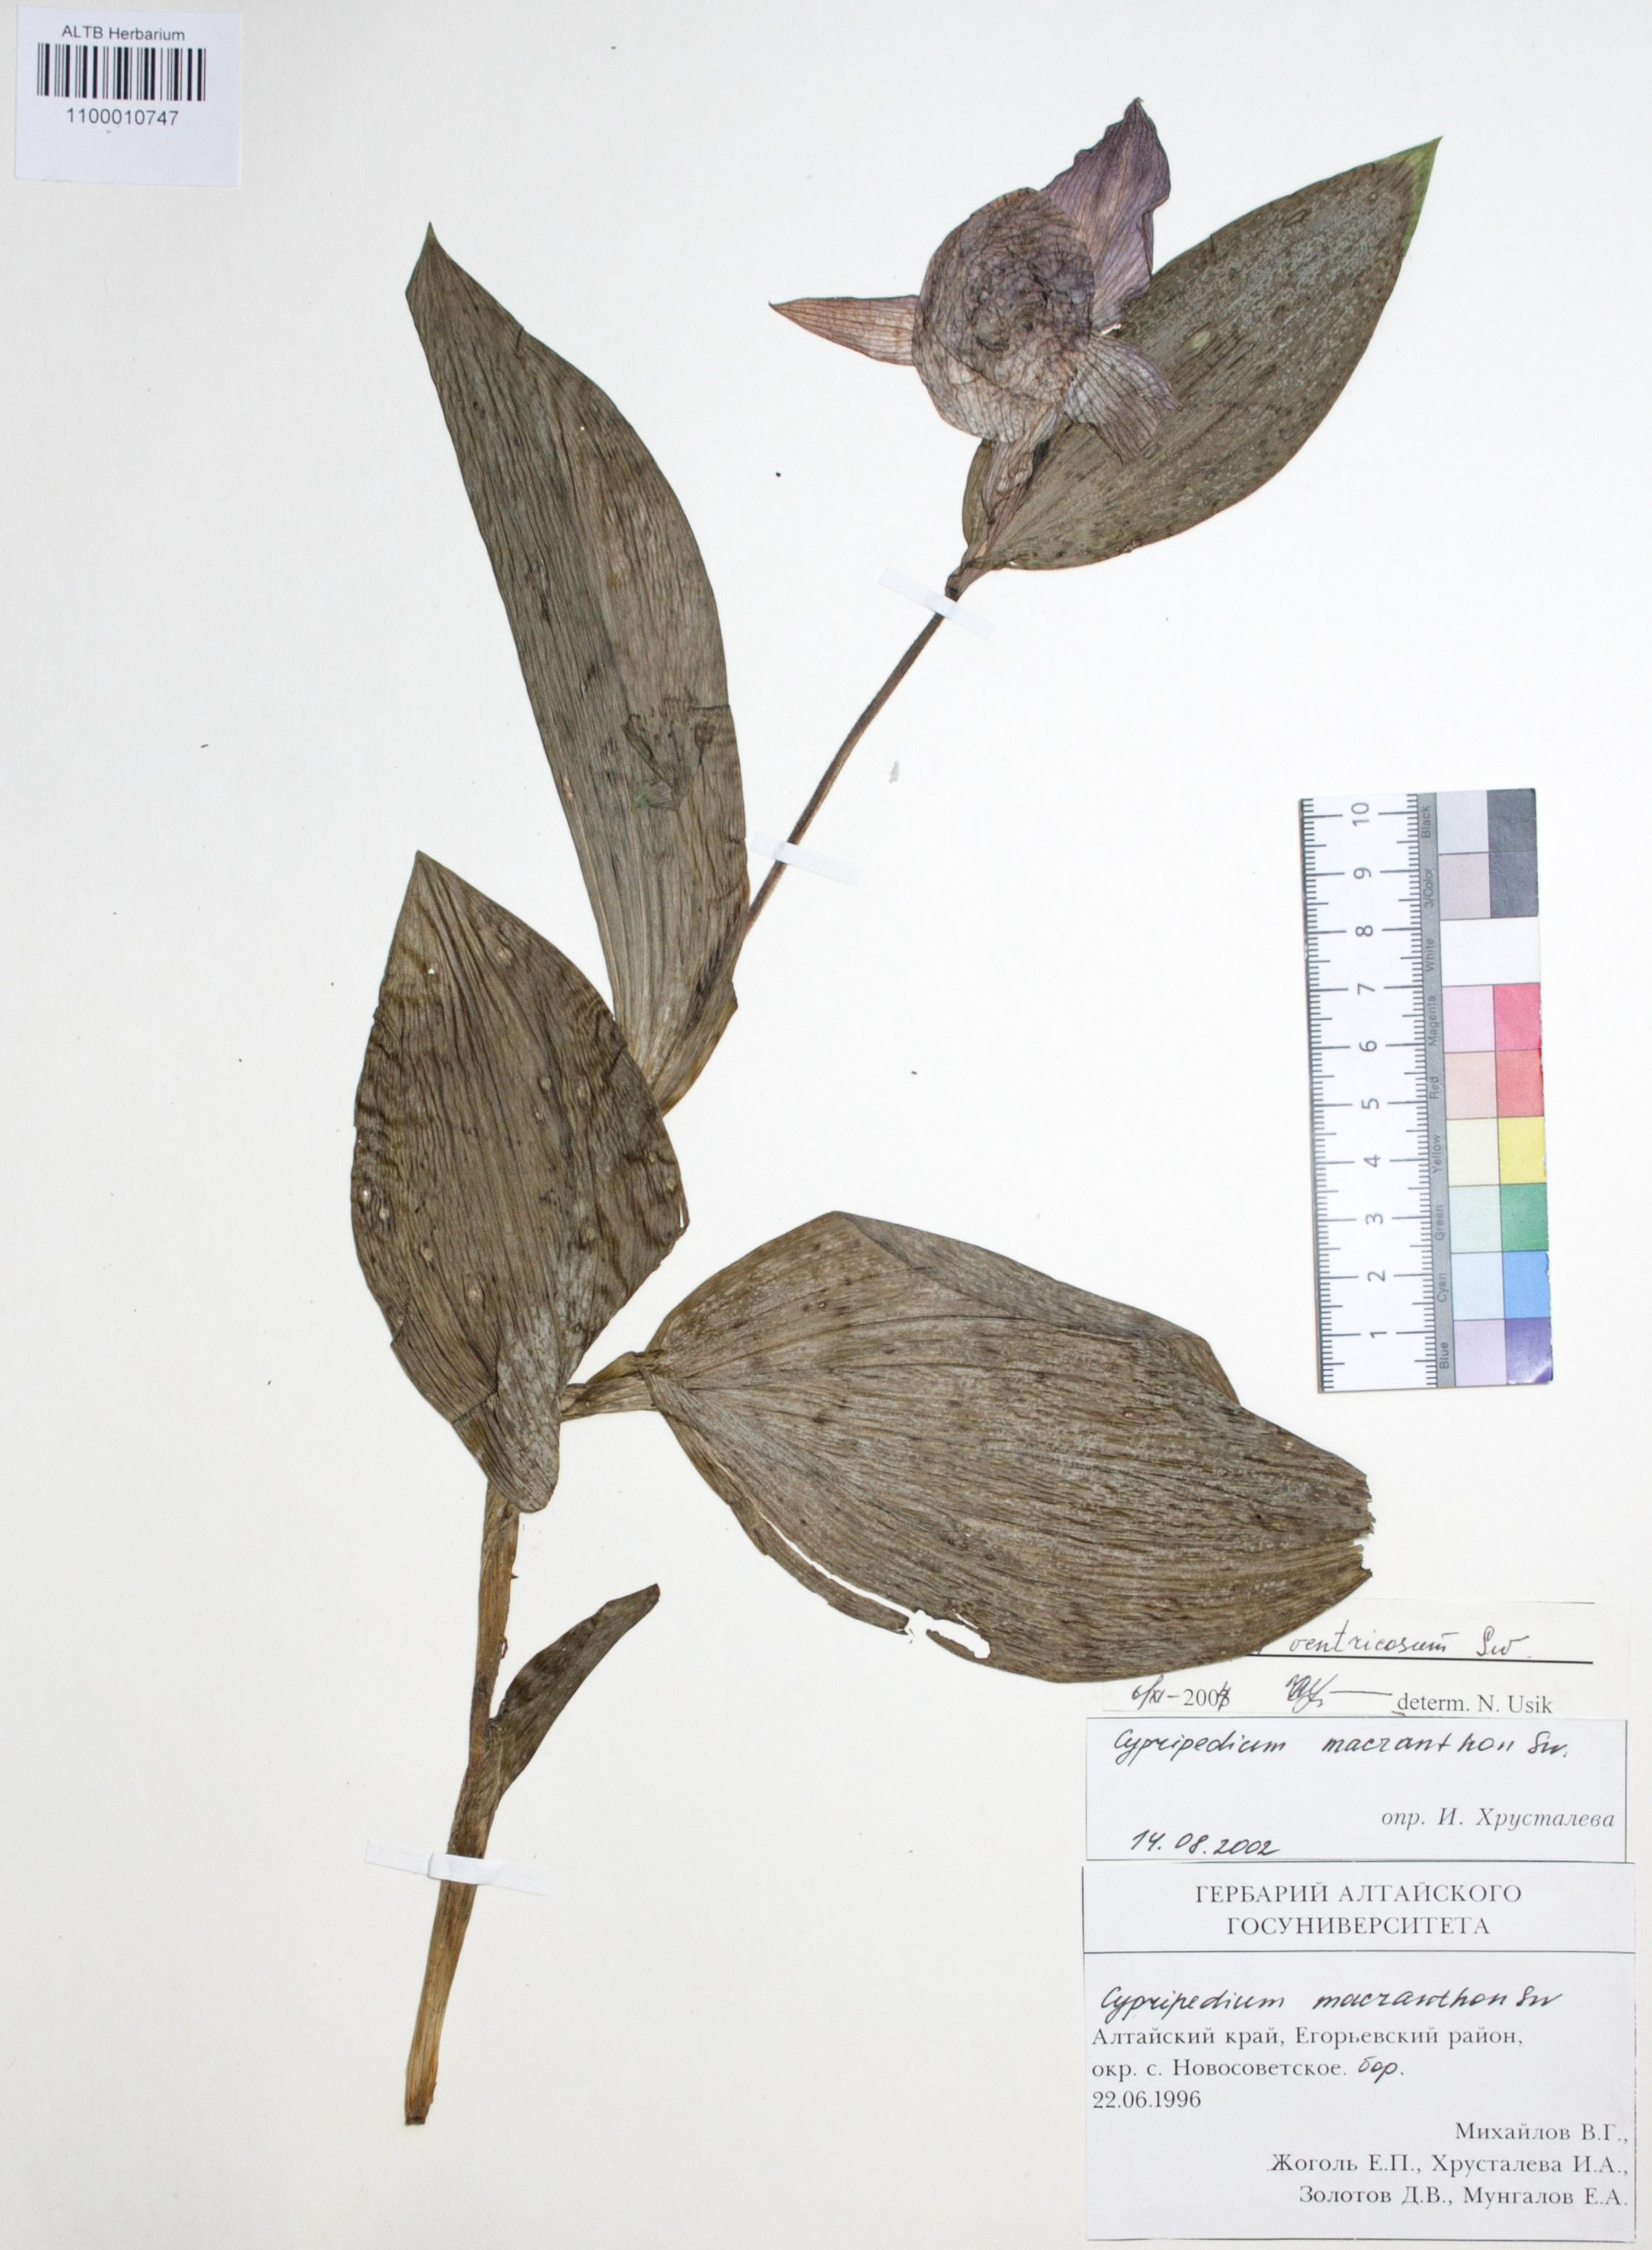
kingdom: Plantae
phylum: Tracheophyta
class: Liliopsida
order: Asparagales
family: Orchidaceae
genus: Cypripedium
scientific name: Cypripedium macranthon
